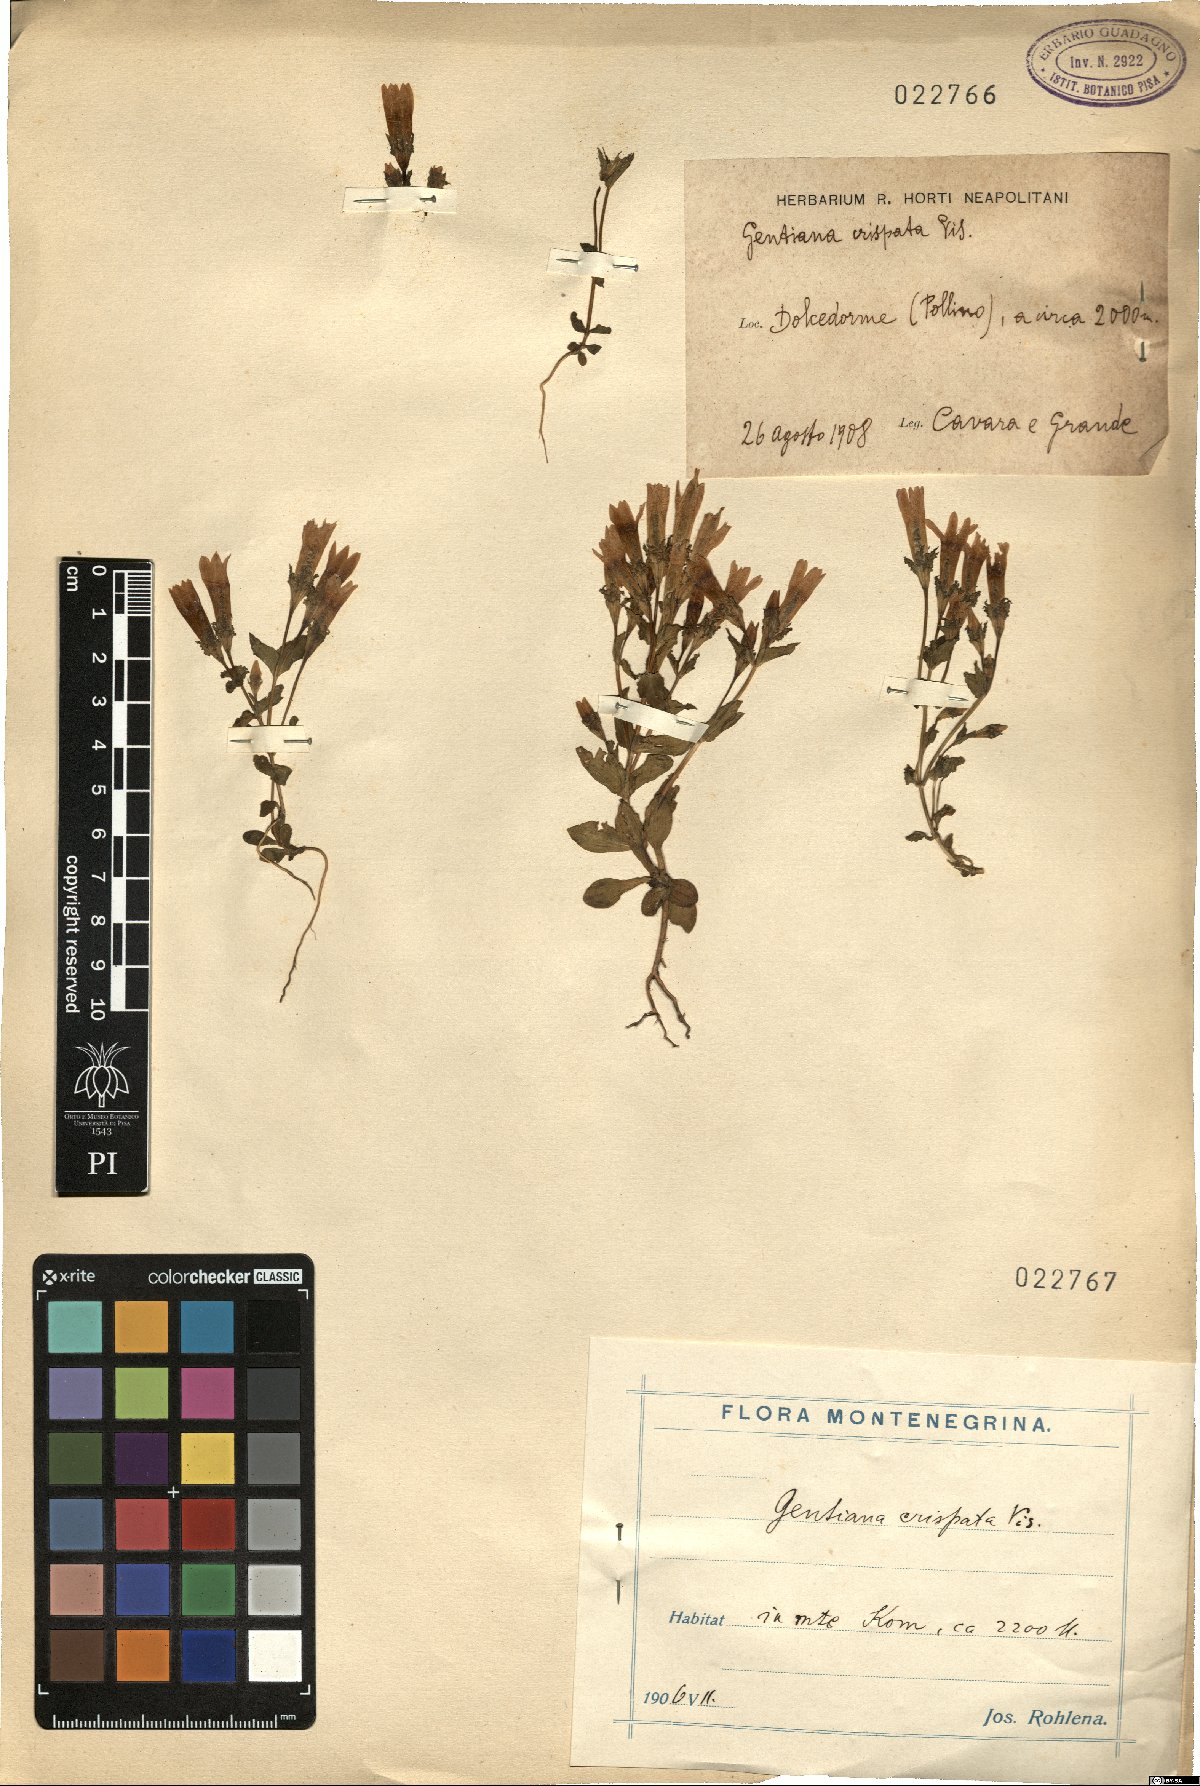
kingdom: Plantae
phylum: Tracheophyta
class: Magnoliopsida
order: Gentianales
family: Gentianaceae
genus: Gentianella
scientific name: Gentianella crispata
